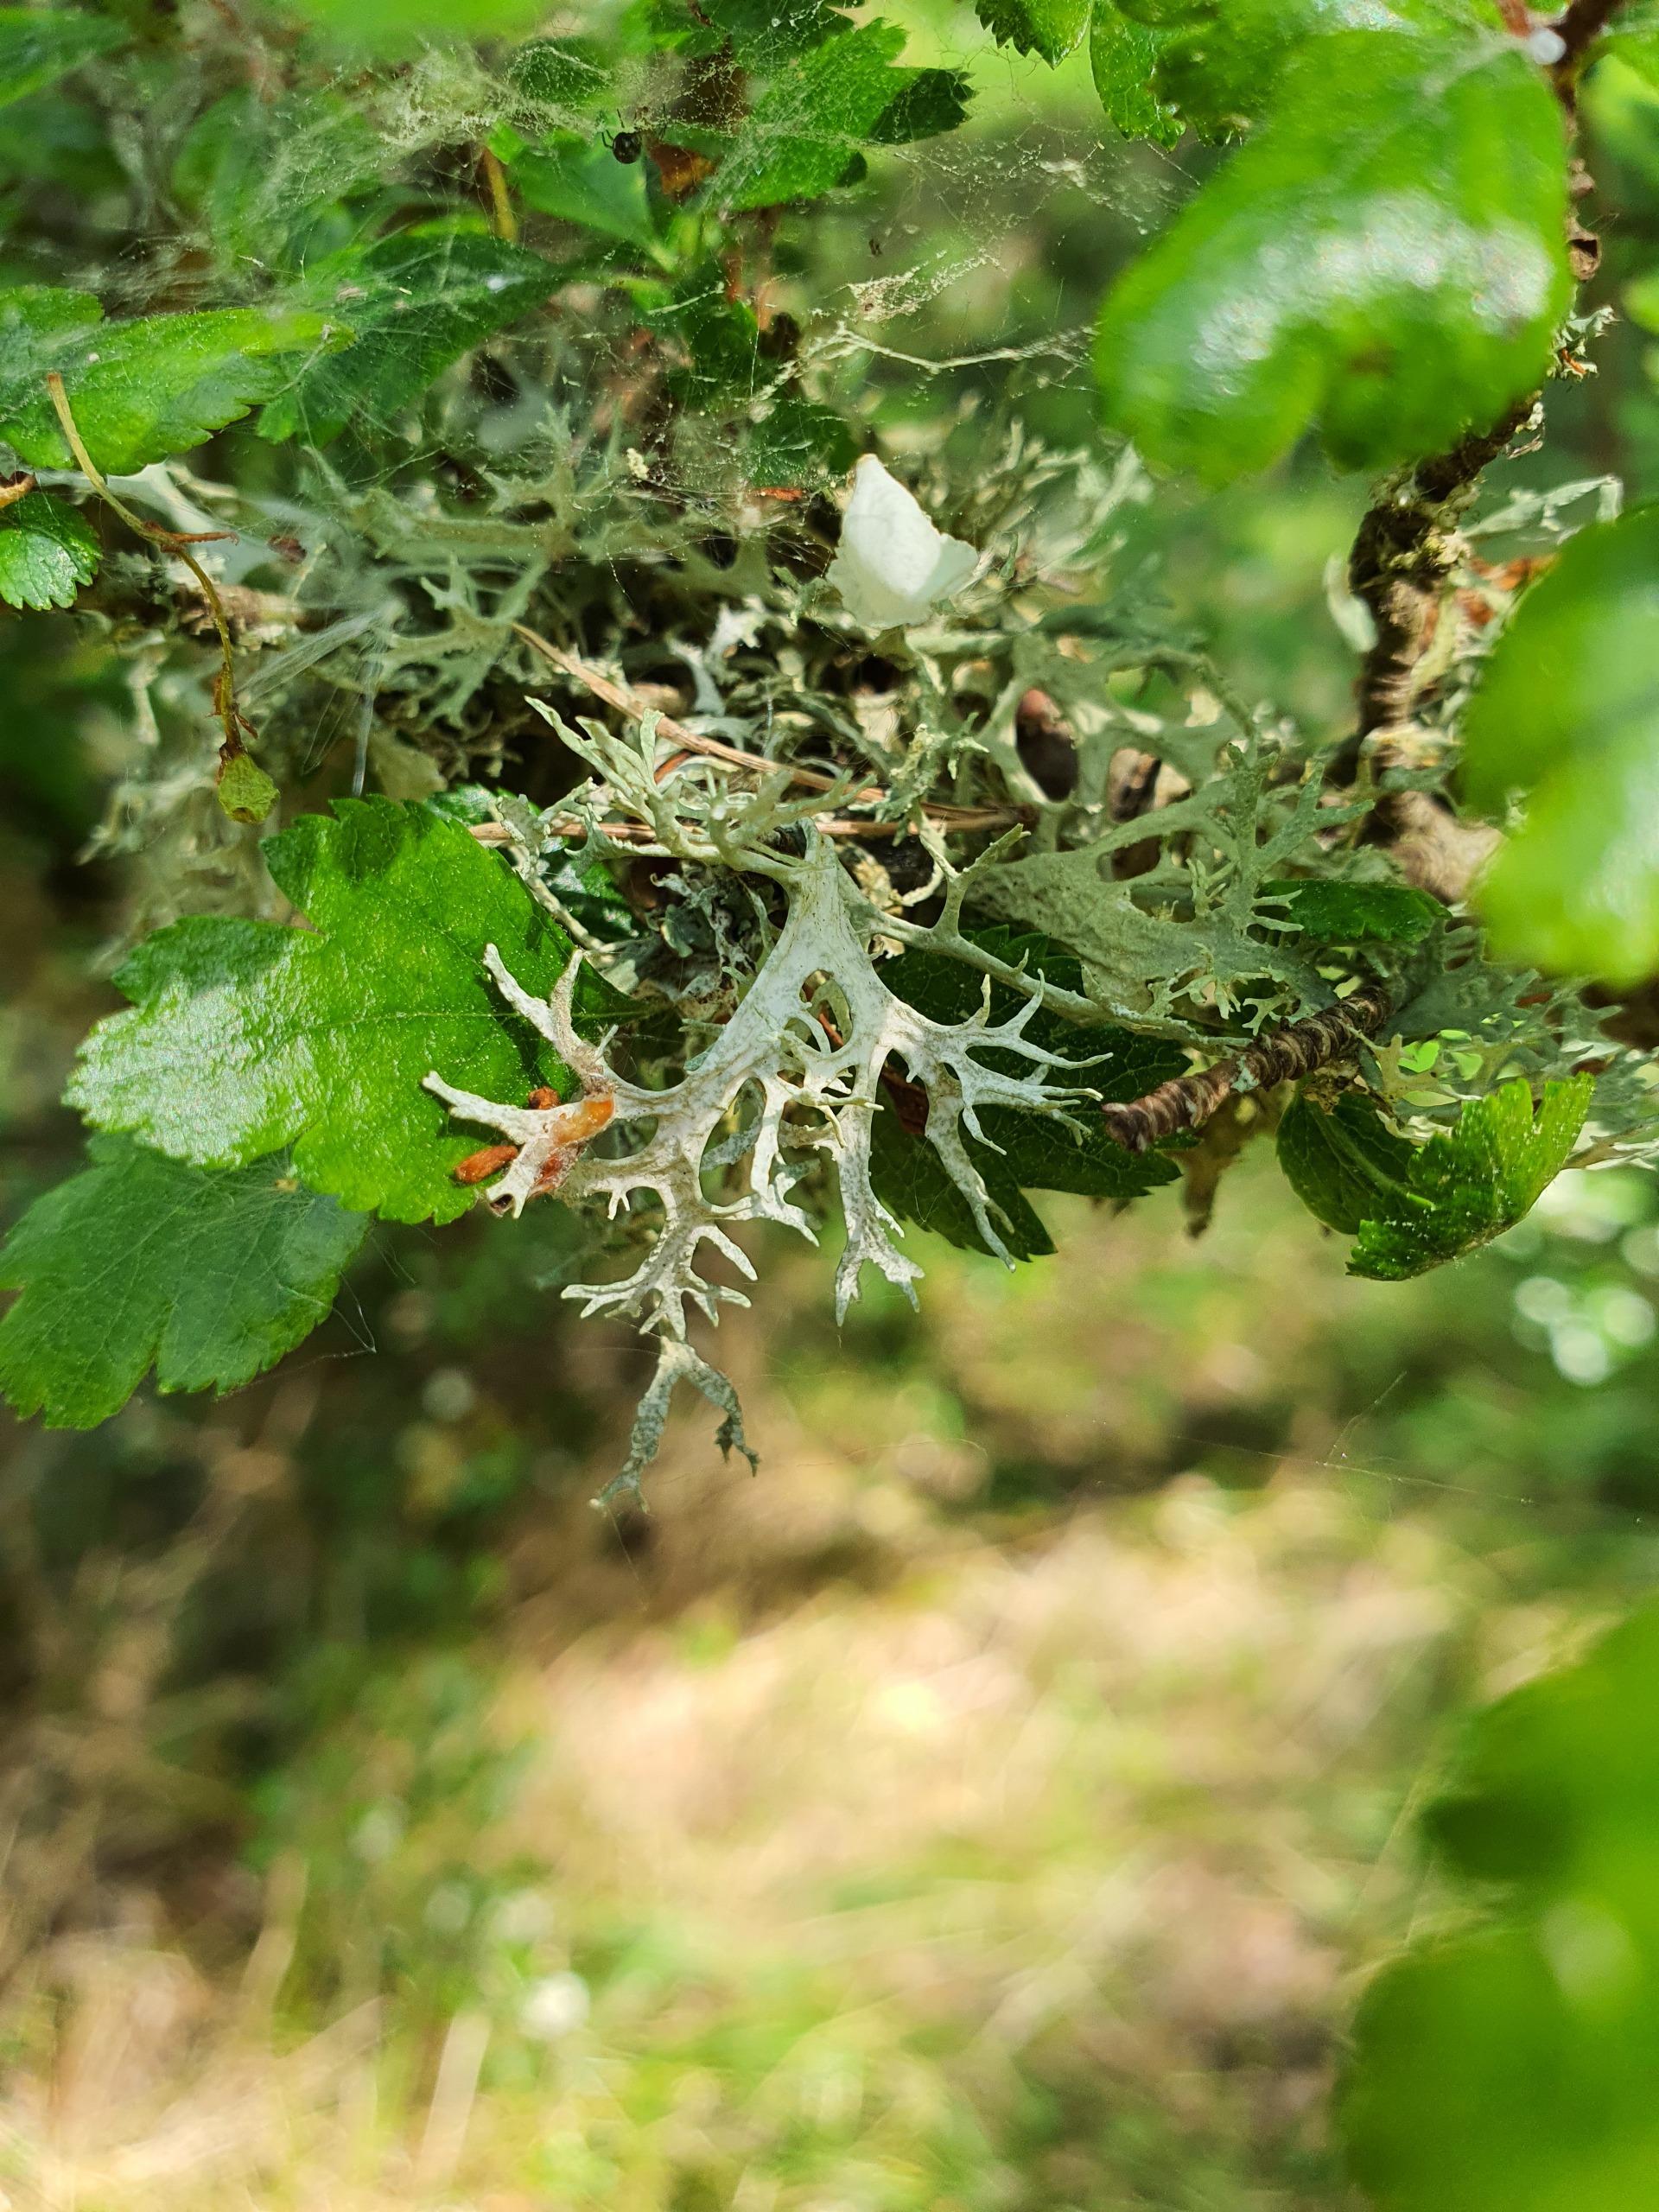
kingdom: Fungi
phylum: Ascomycota
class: Lecanoromycetes
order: Lecanorales
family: Parmeliaceae
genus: Evernia
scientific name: Evernia prunastri
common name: Almindelig slåenlav
